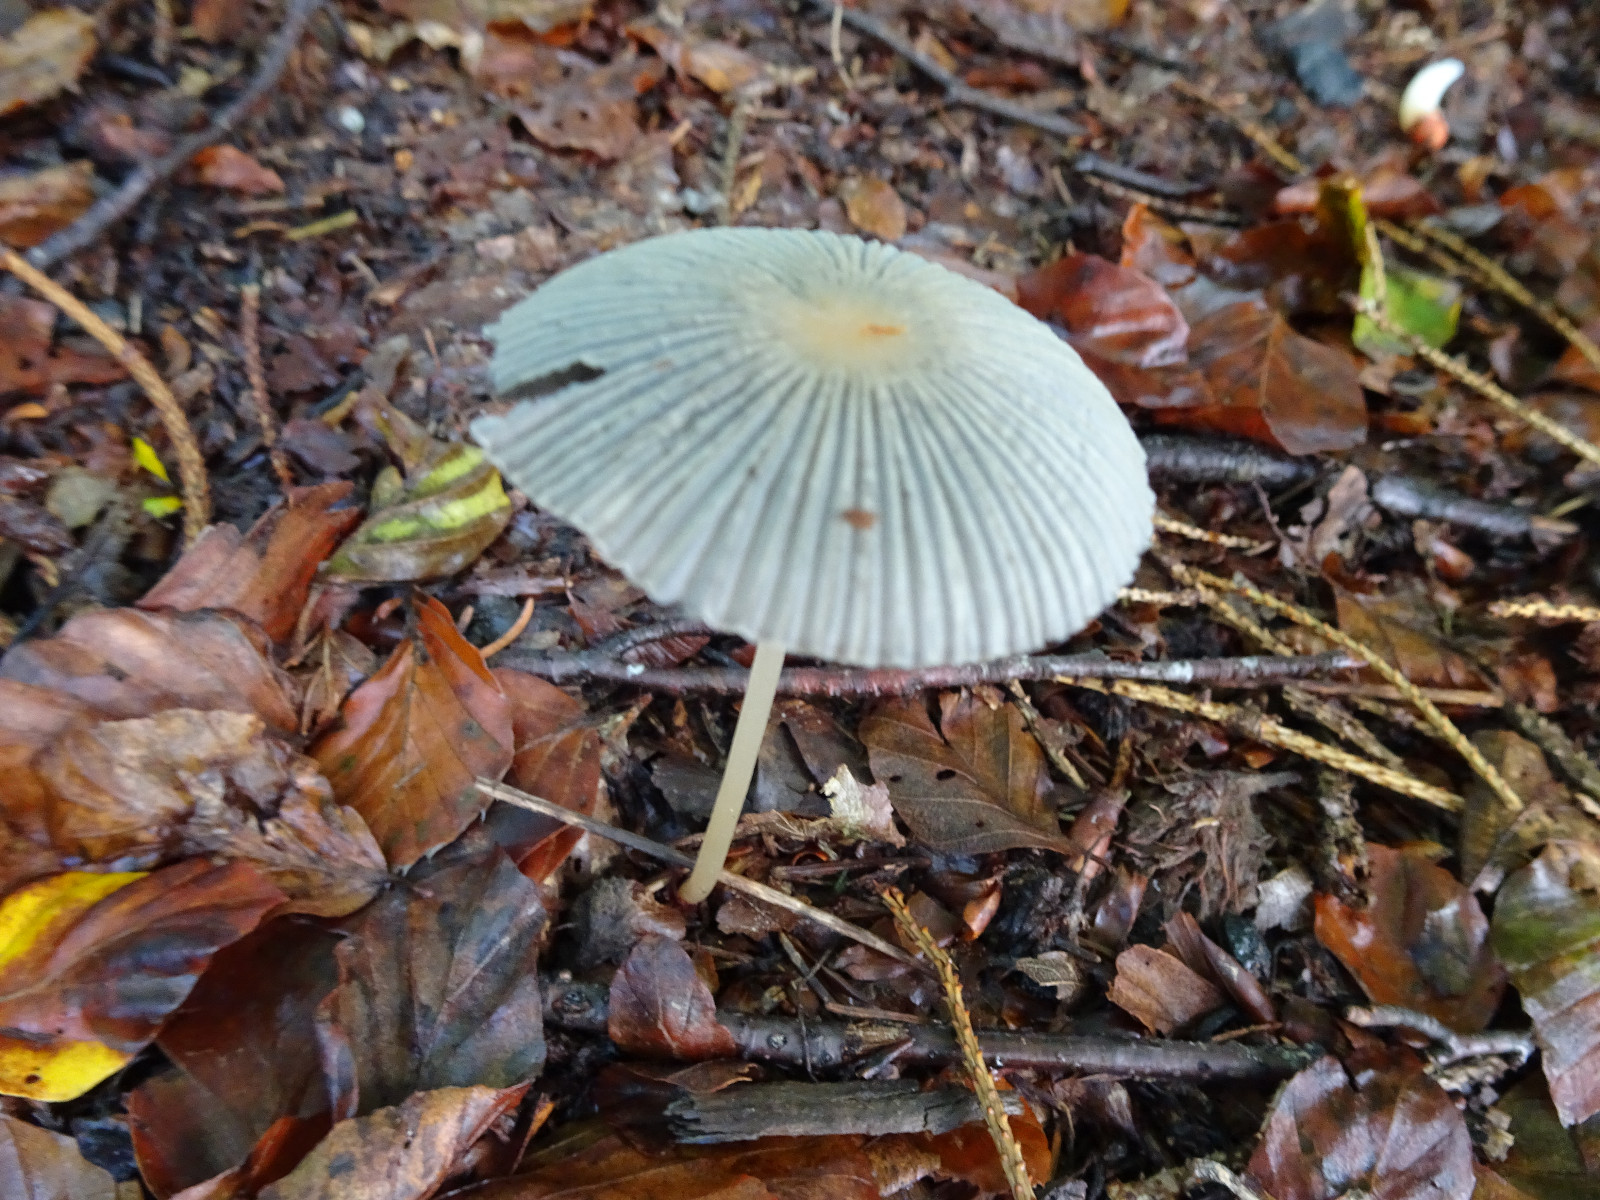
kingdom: Fungi
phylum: Basidiomycota
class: Agaricomycetes
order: Agaricales
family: Psathyrellaceae
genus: Parasola
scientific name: Parasola
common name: hjulhat
